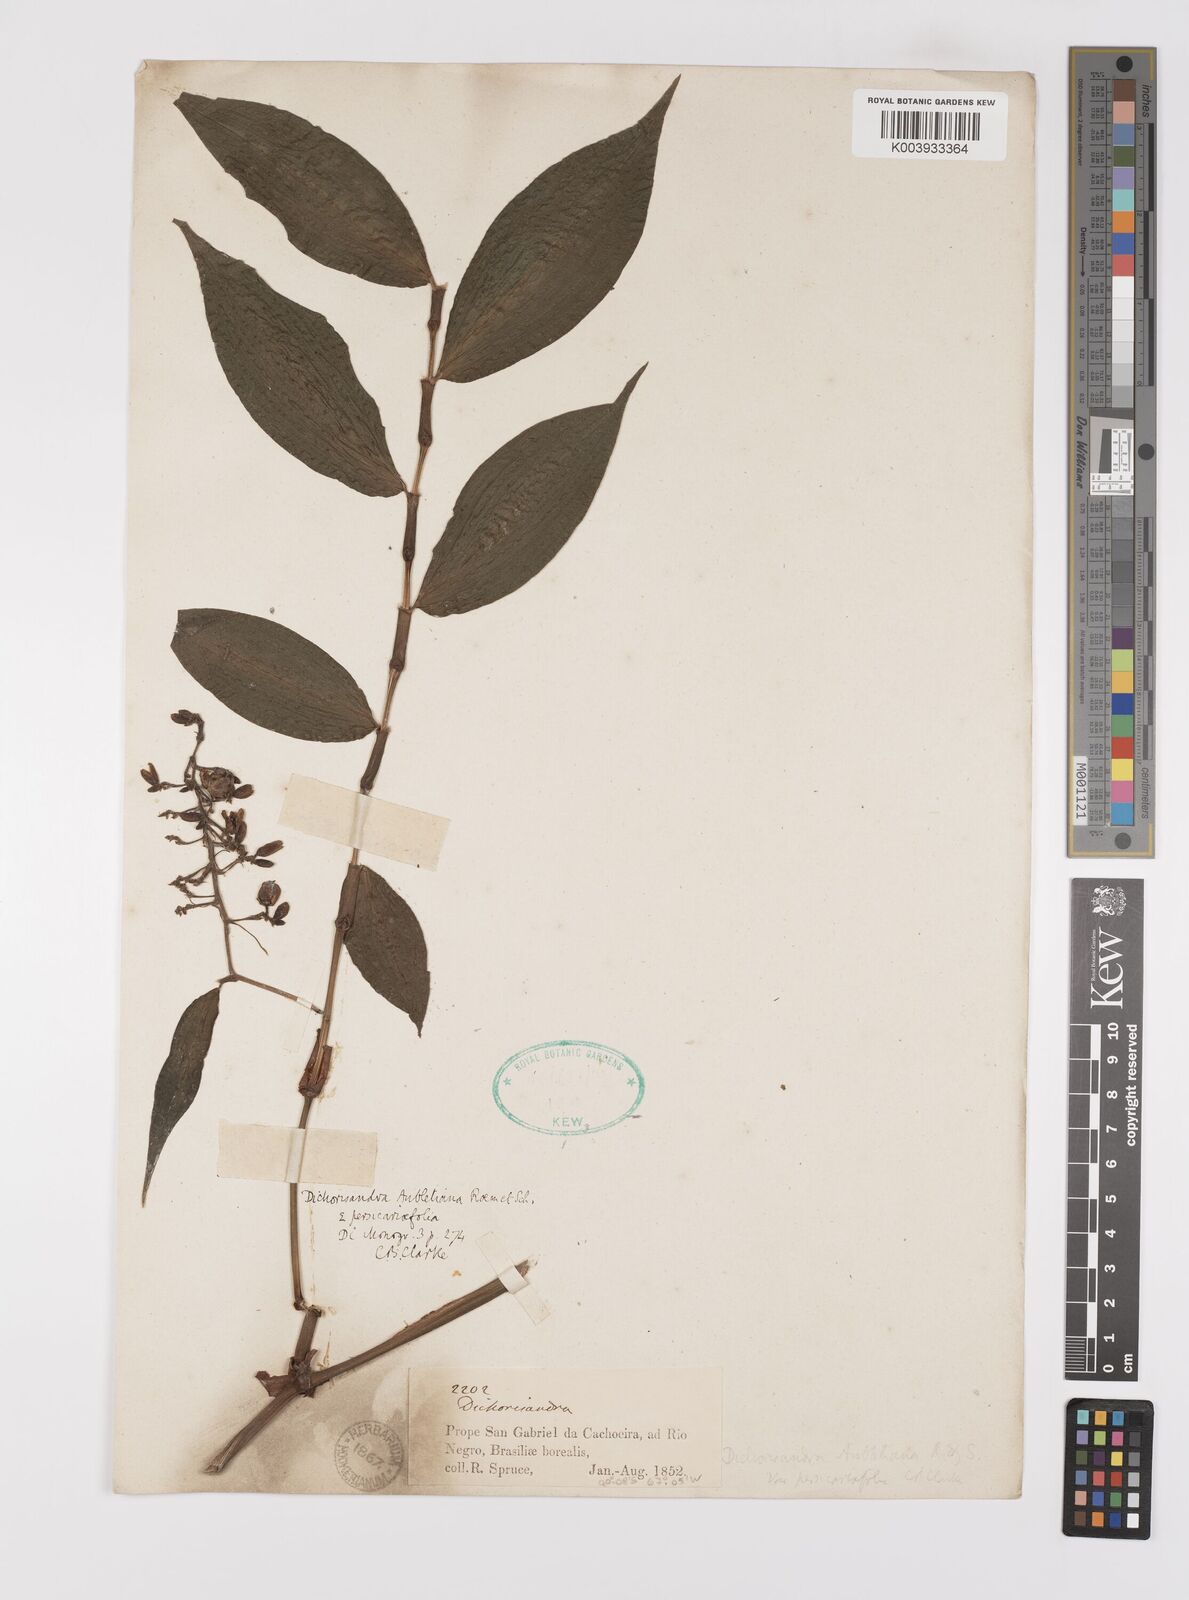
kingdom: Plantae
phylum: Tracheophyta
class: Liliopsida
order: Commelinales
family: Commelinaceae
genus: Dichorisandra
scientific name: Dichorisandra hexandra
